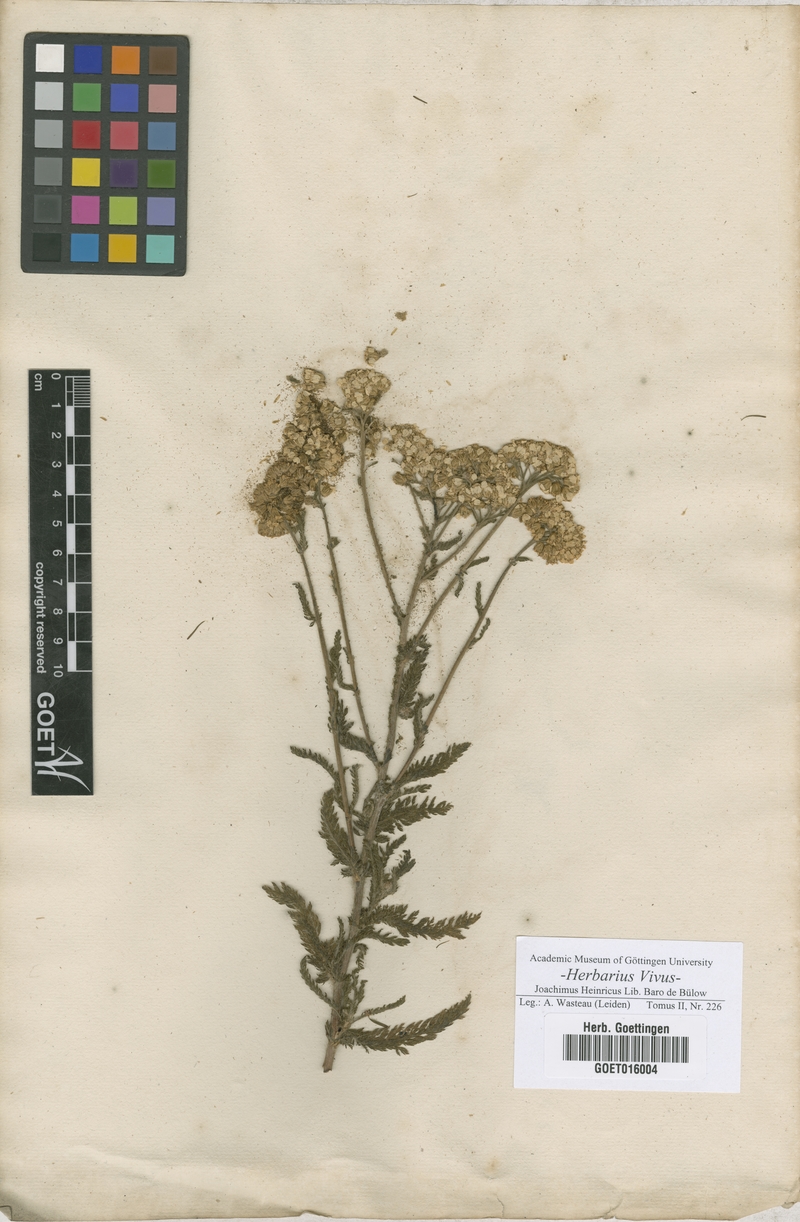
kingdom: Plantae
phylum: Tracheophyta
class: Magnoliopsida
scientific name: Magnoliopsida
